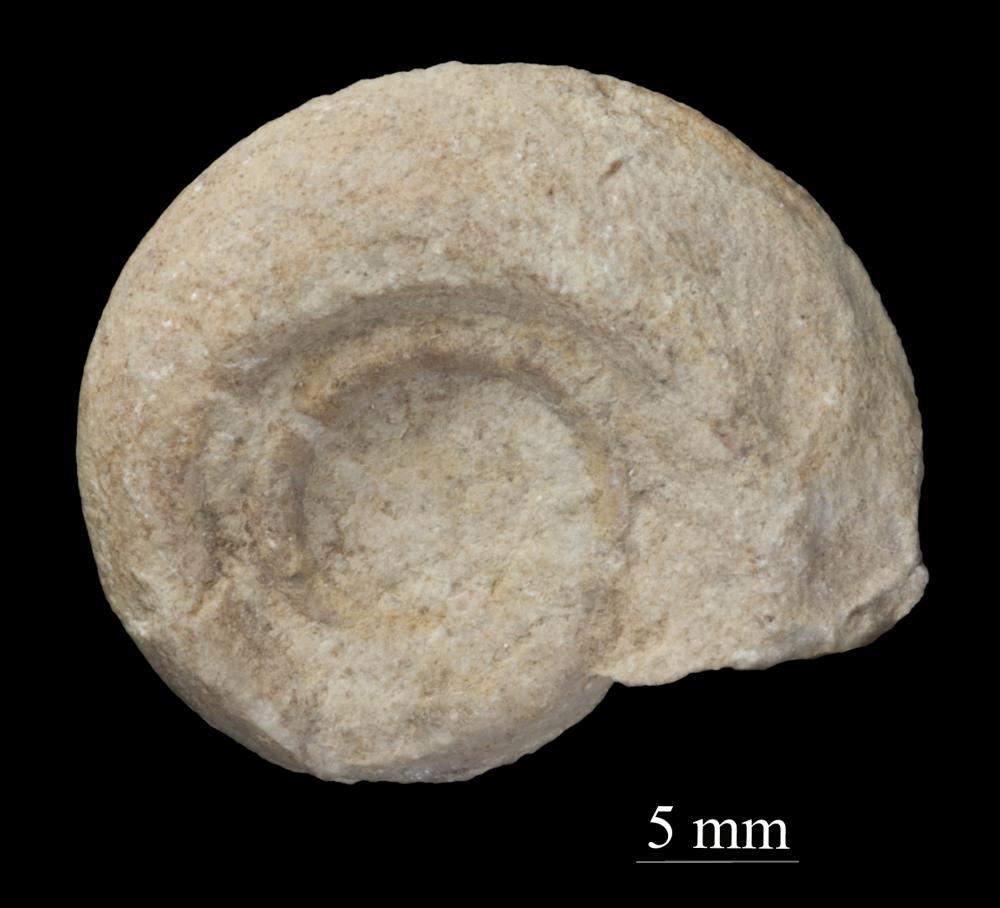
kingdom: Animalia
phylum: Mollusca
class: Gastropoda
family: Bellerophontidae
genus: Bellerophon
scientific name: Bellerophon contortus
